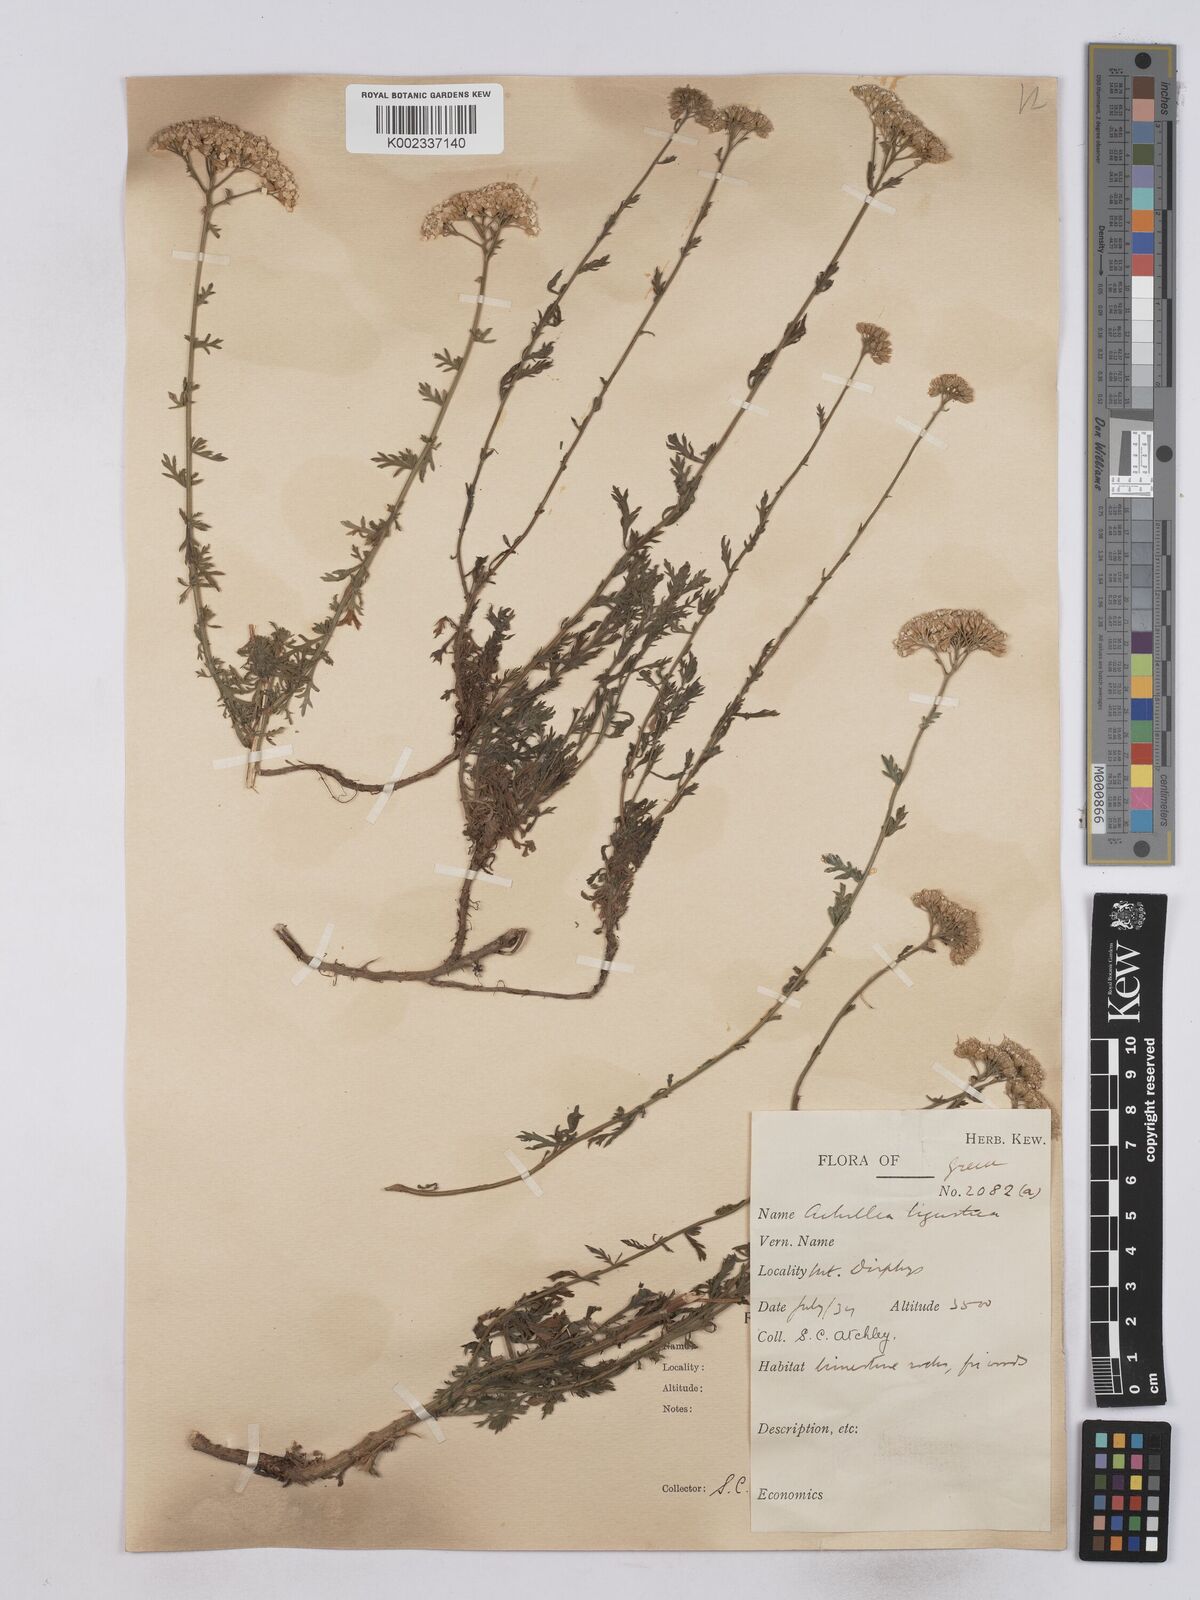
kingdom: Plantae
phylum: Tracheophyta
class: Magnoliopsida
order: Asterales
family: Asteraceae
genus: Achillea
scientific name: Achillea ligustica
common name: Southern yarrow
